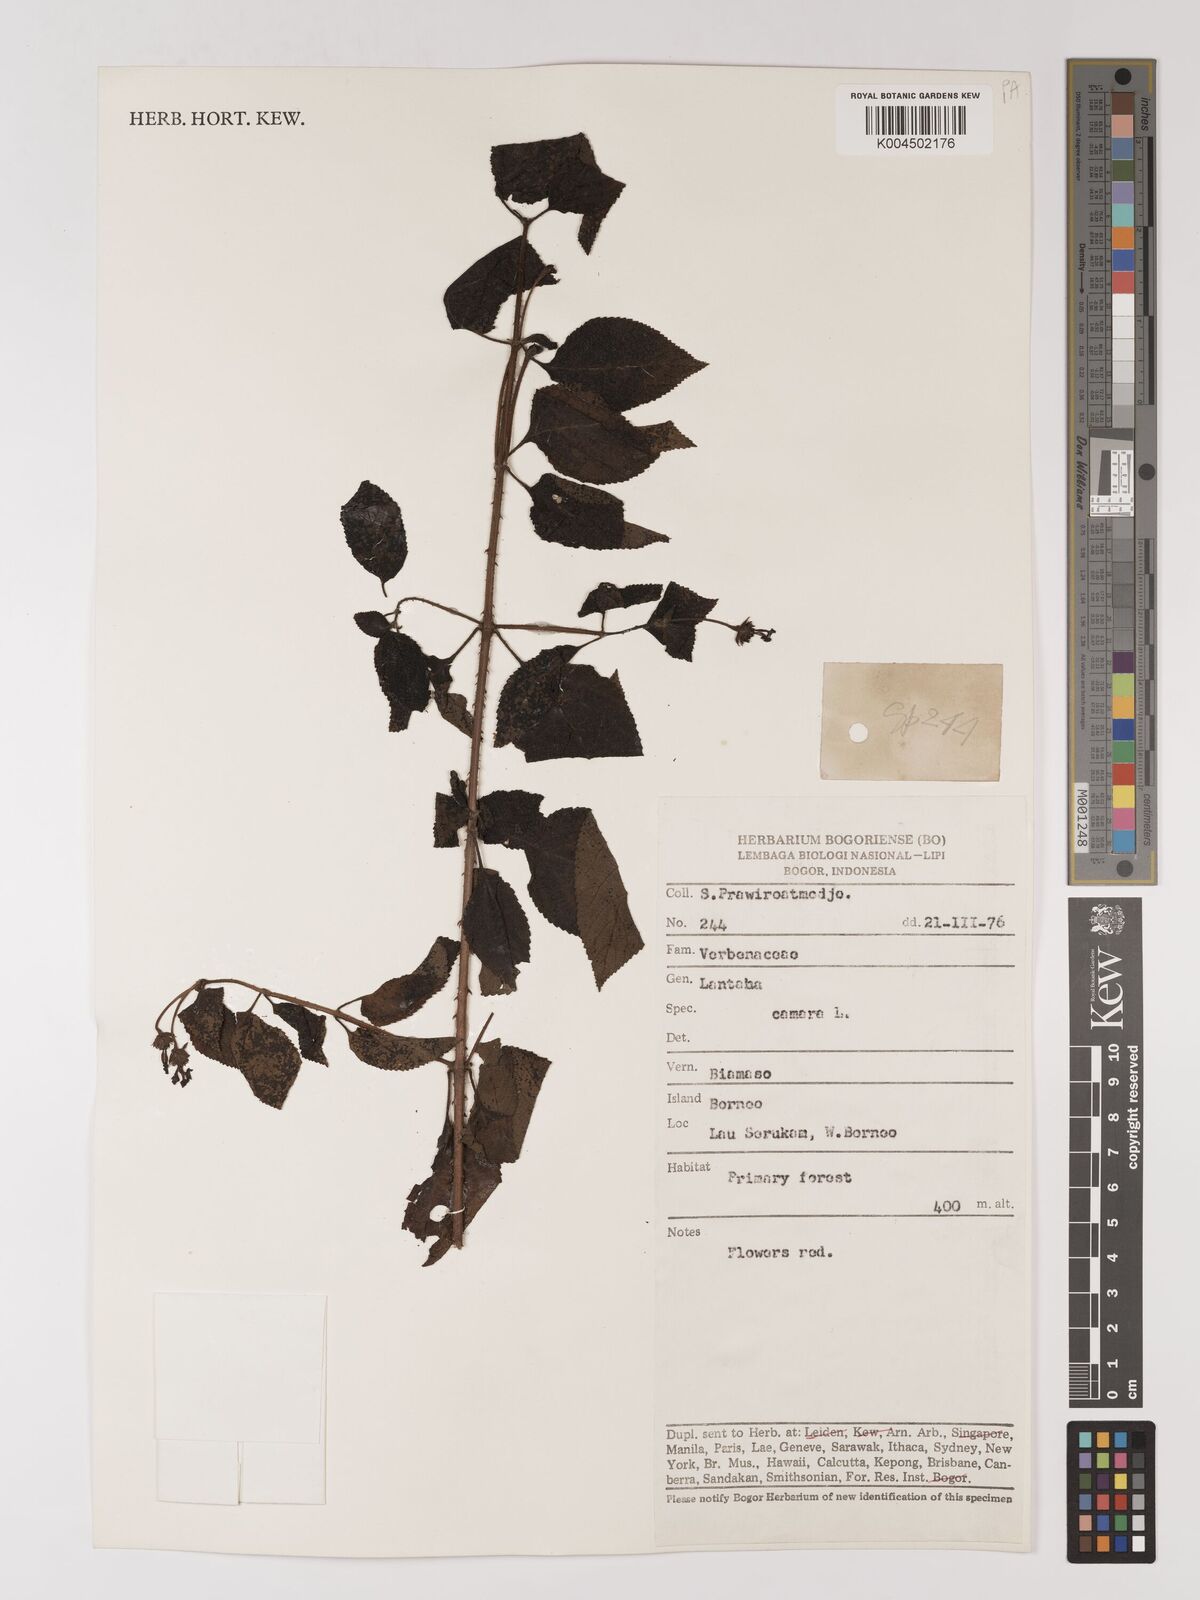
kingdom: Plantae
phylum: Tracheophyta
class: Magnoliopsida
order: Lamiales
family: Verbenaceae
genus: Lantana
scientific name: Lantana trifolia
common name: Sweet-sage
